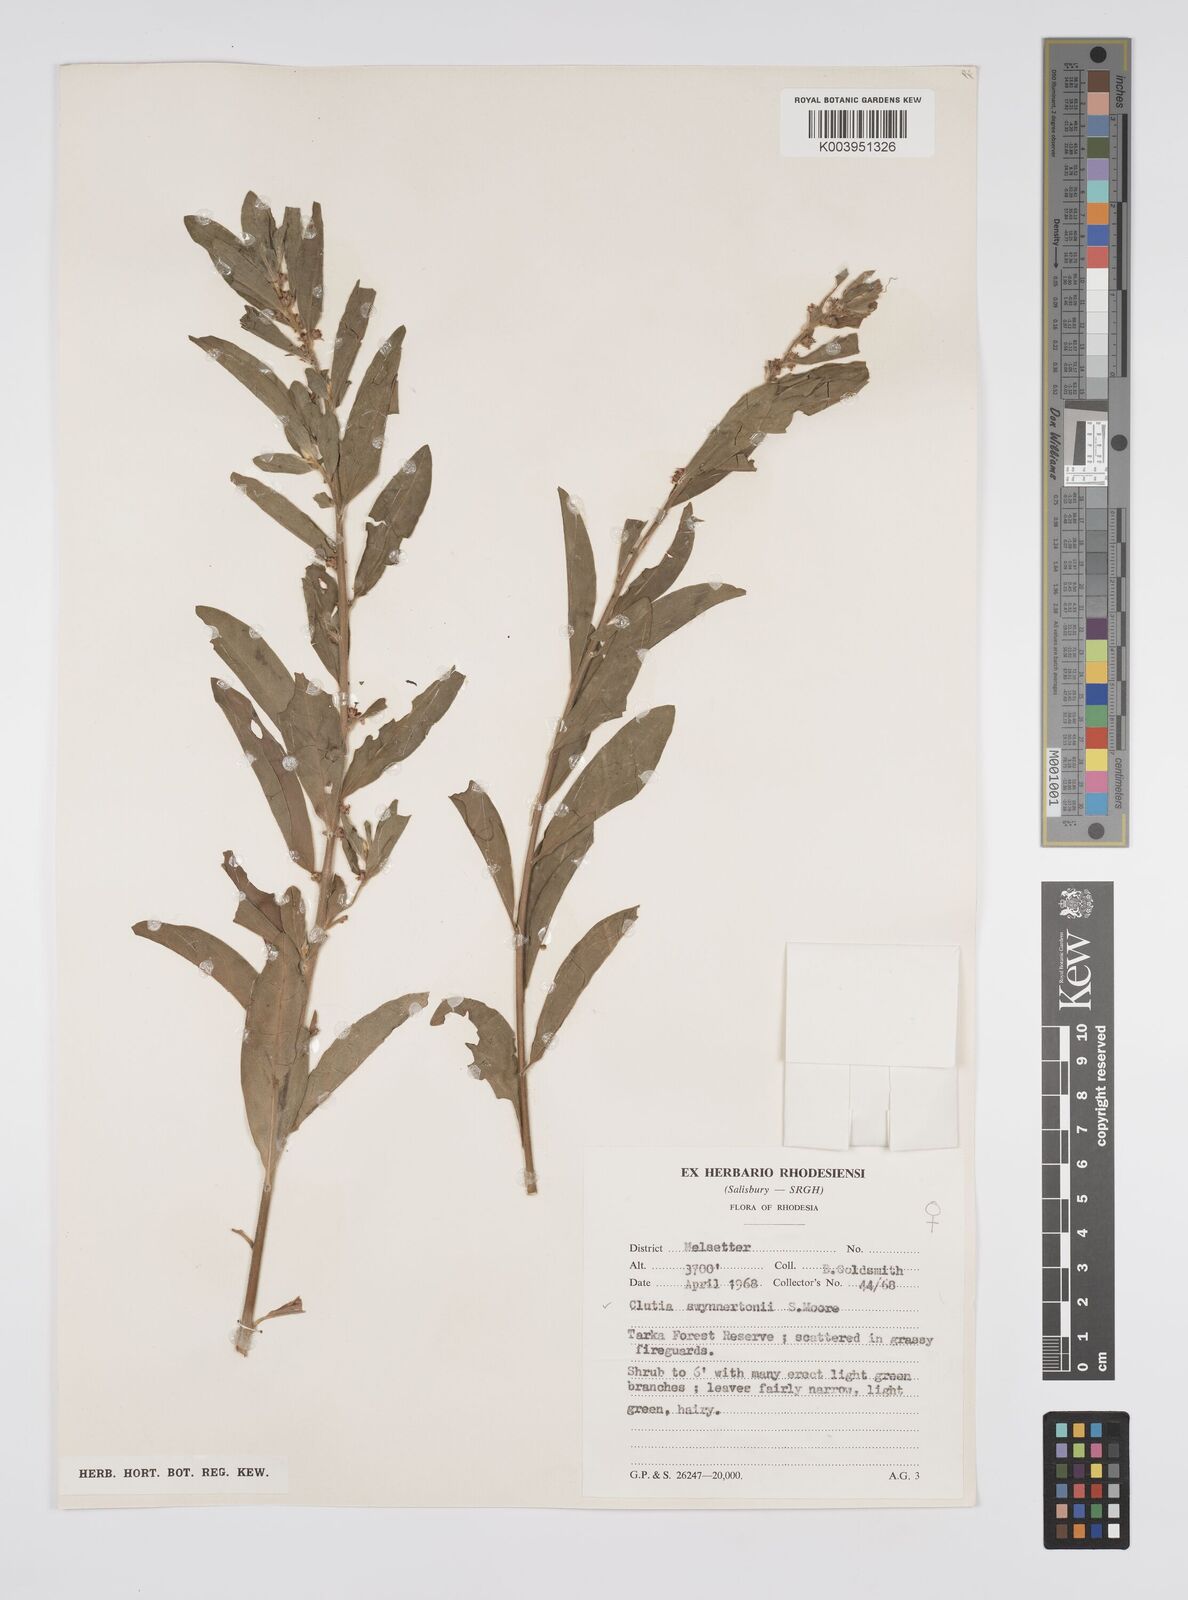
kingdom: Plantae
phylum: Tracheophyta
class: Magnoliopsida
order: Malpighiales
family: Peraceae
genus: Clutia
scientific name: Clutia swynnertonii
